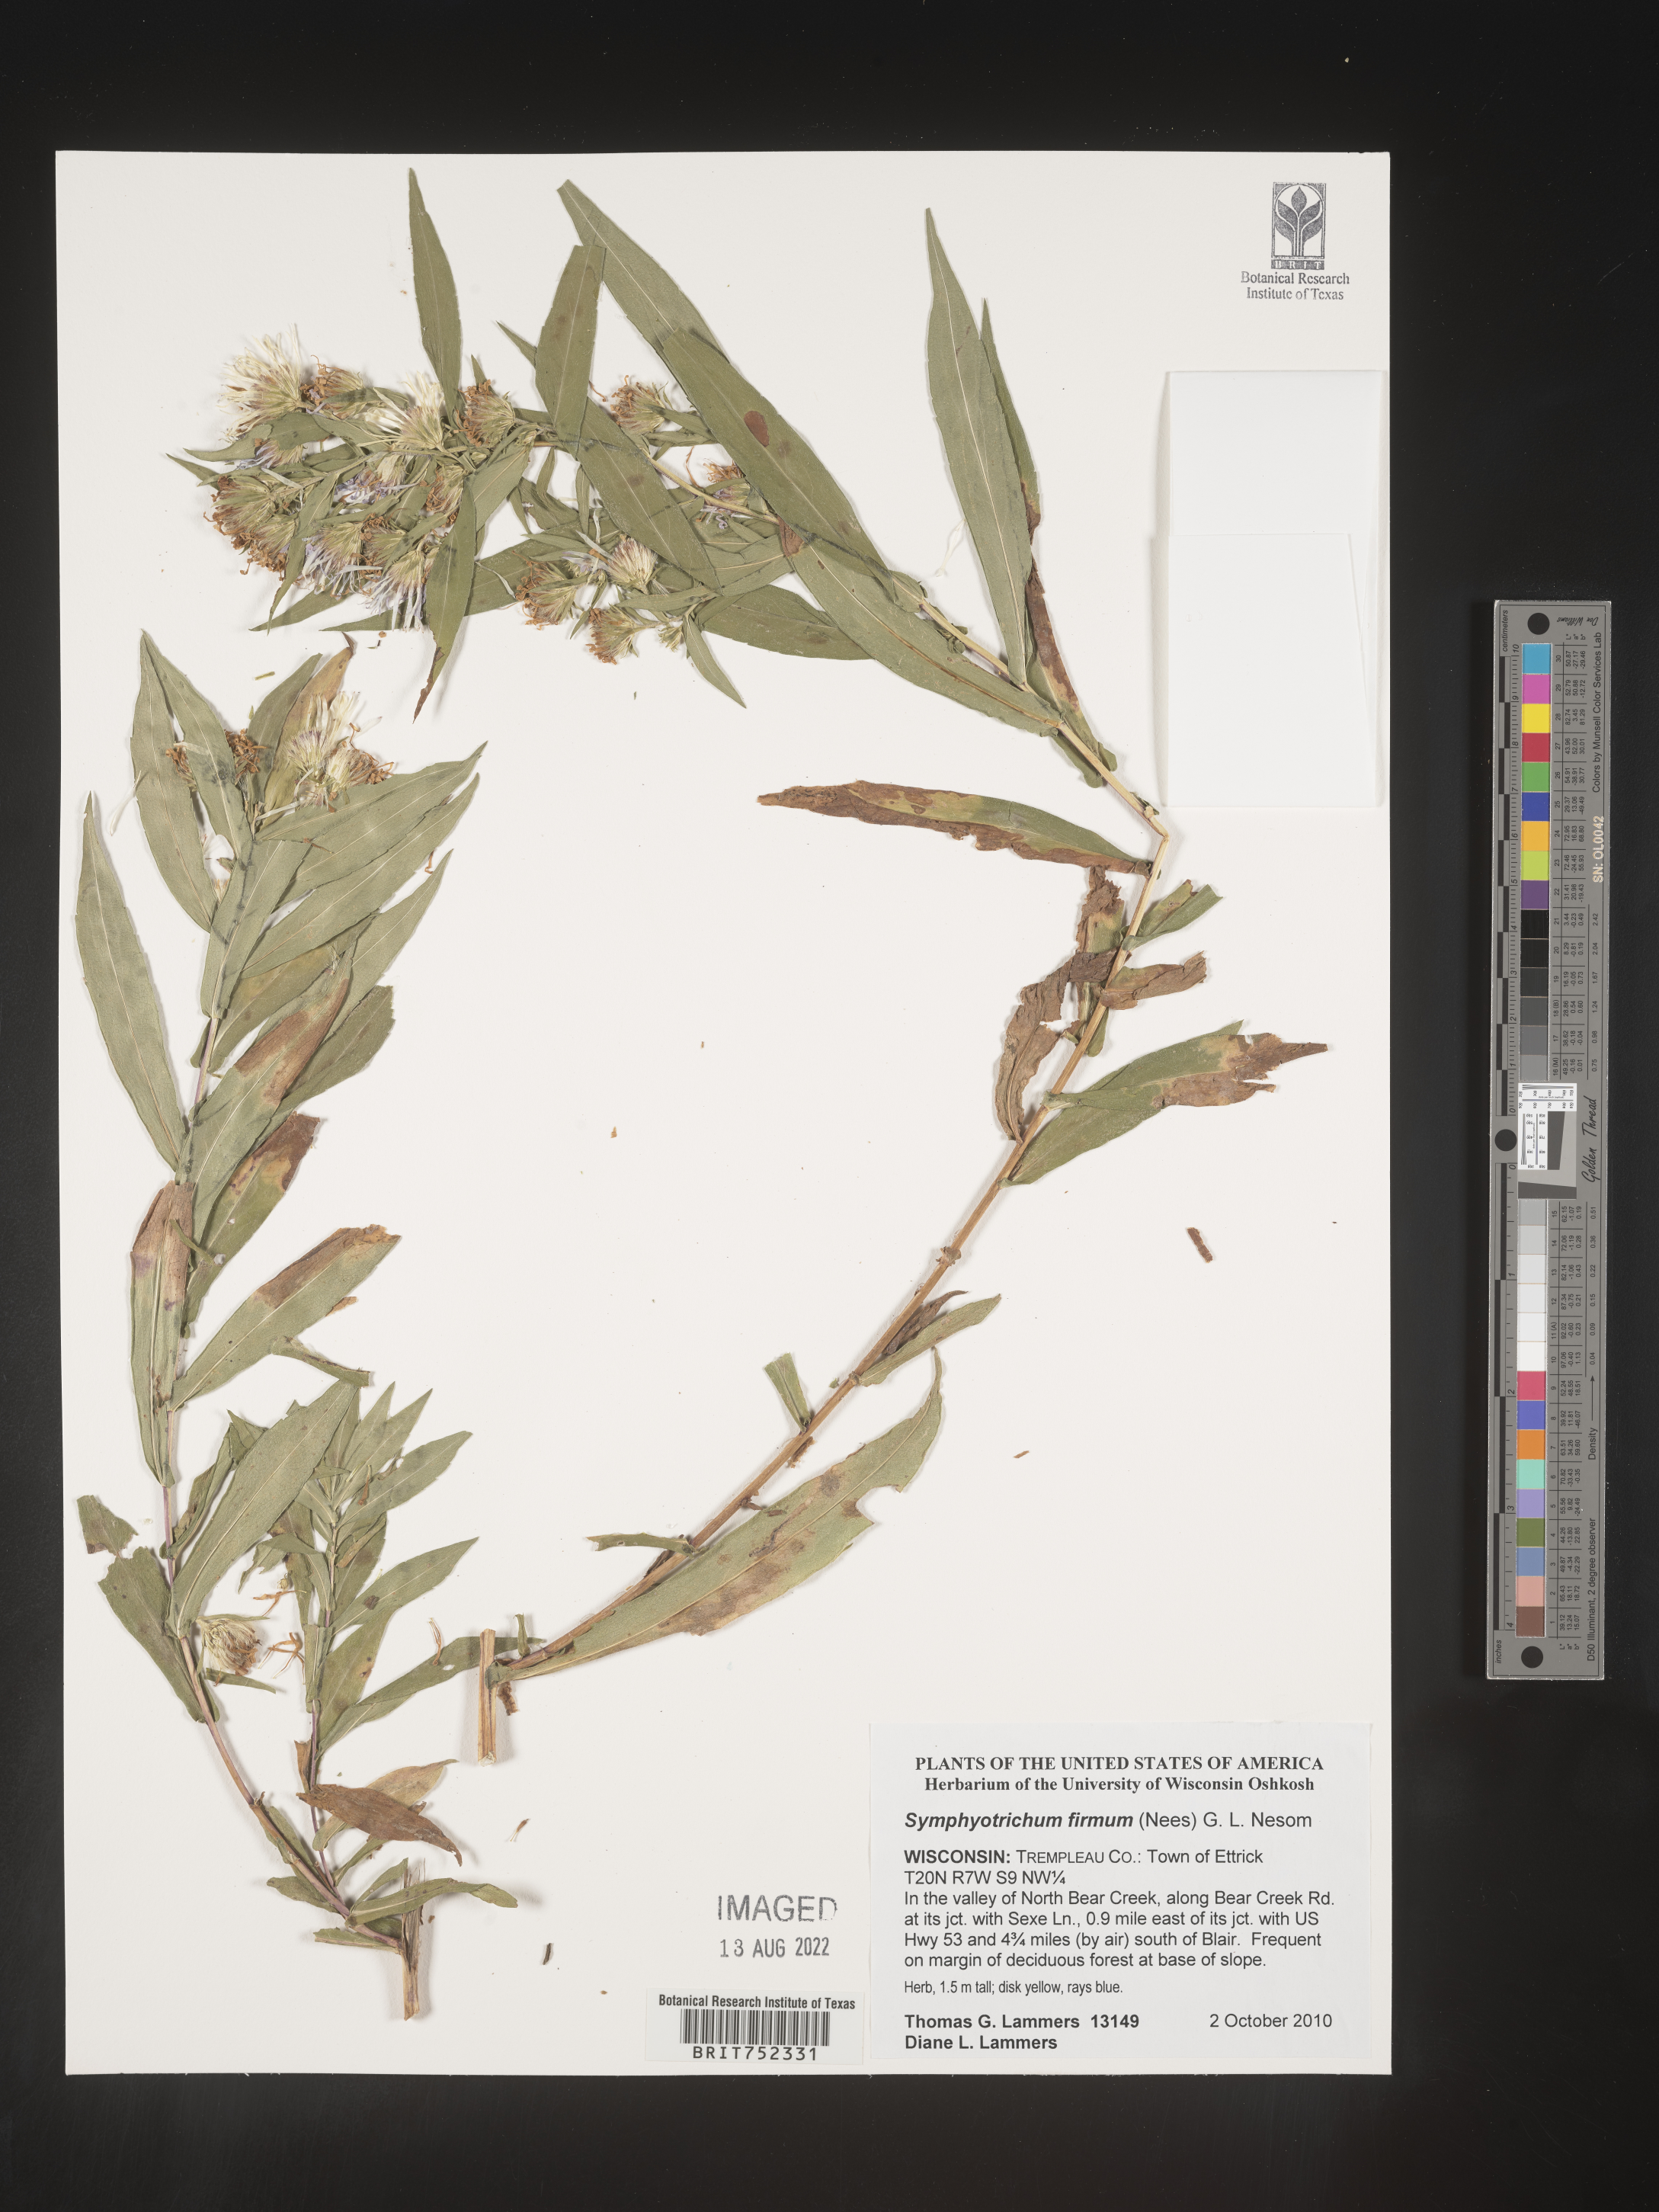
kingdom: Plantae
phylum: Tracheophyta
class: Magnoliopsida
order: Asterales
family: Asteraceae
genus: Symphyotrichum
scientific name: Symphyotrichum firmum
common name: Shining aster
